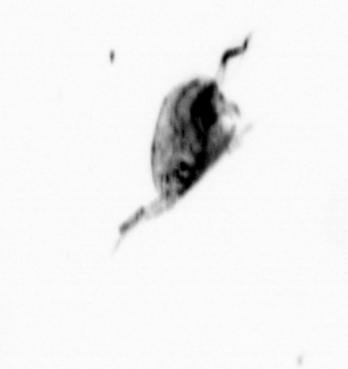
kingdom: Animalia
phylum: Arthropoda
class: Maxillopoda
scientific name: Maxillopoda
